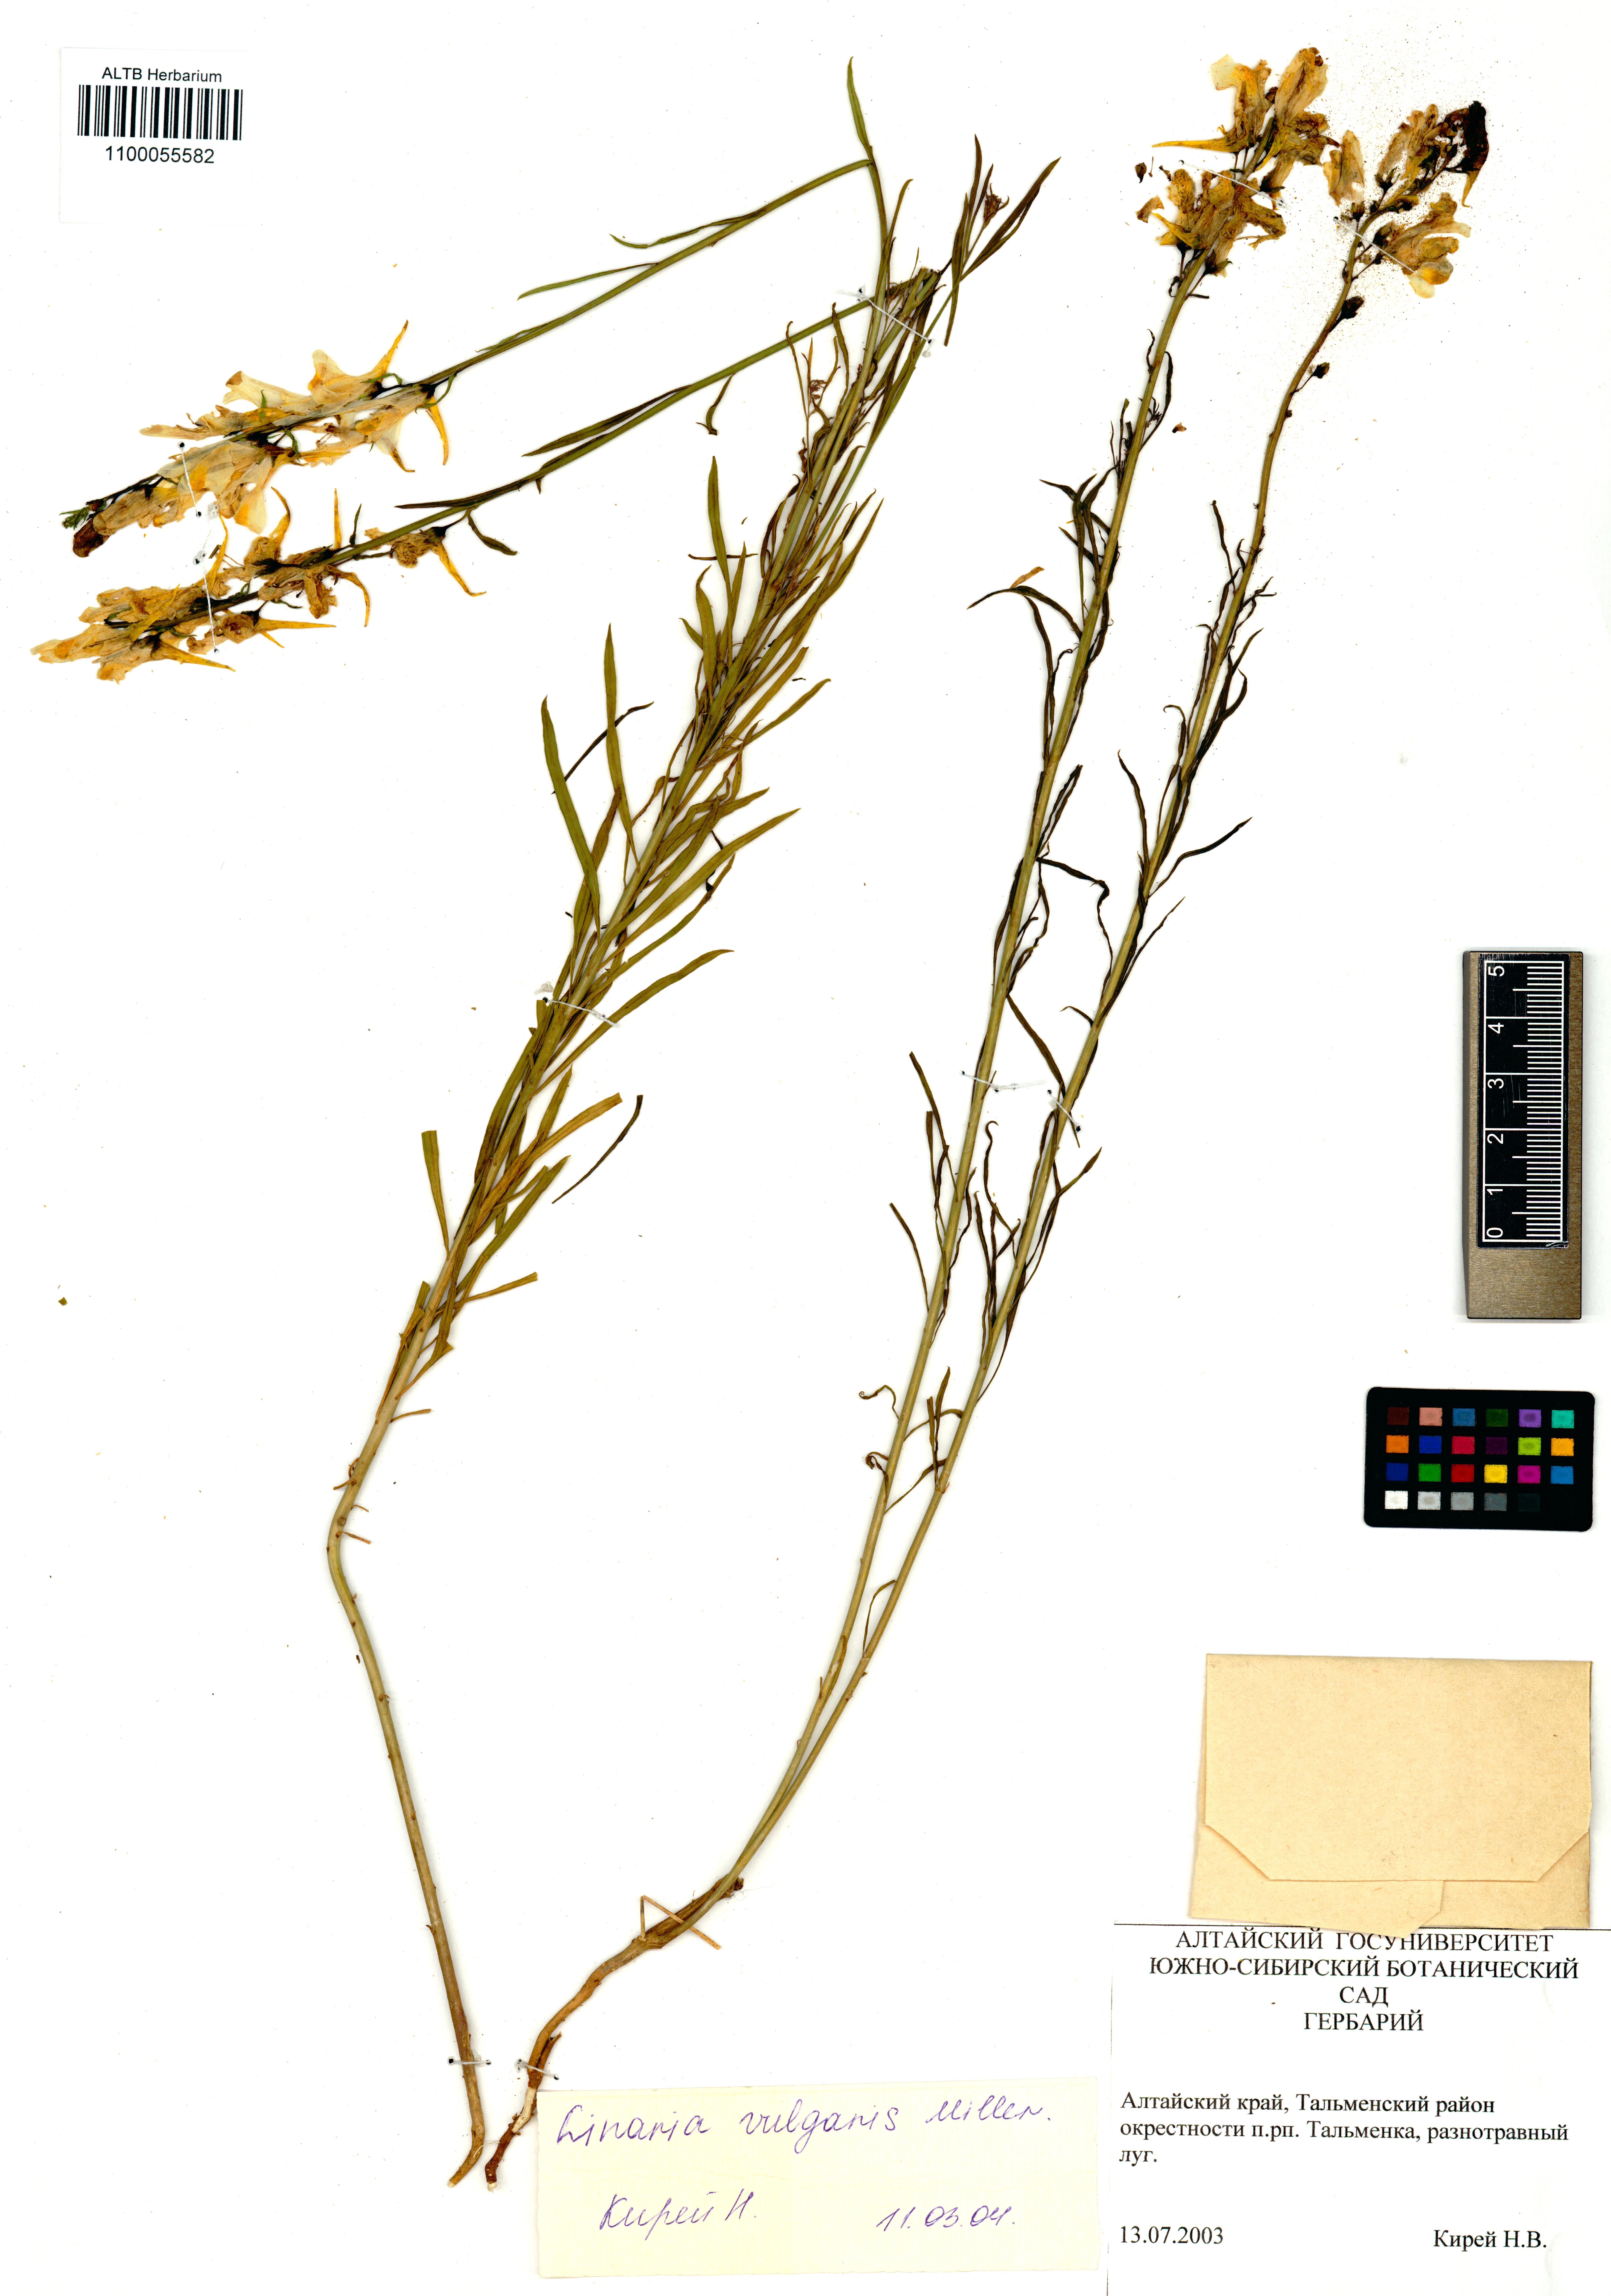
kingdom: Plantae
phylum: Tracheophyta
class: Magnoliopsida
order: Lamiales
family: Plantaginaceae
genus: Linaria
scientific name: Linaria vulgaris
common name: Butter and eggs
